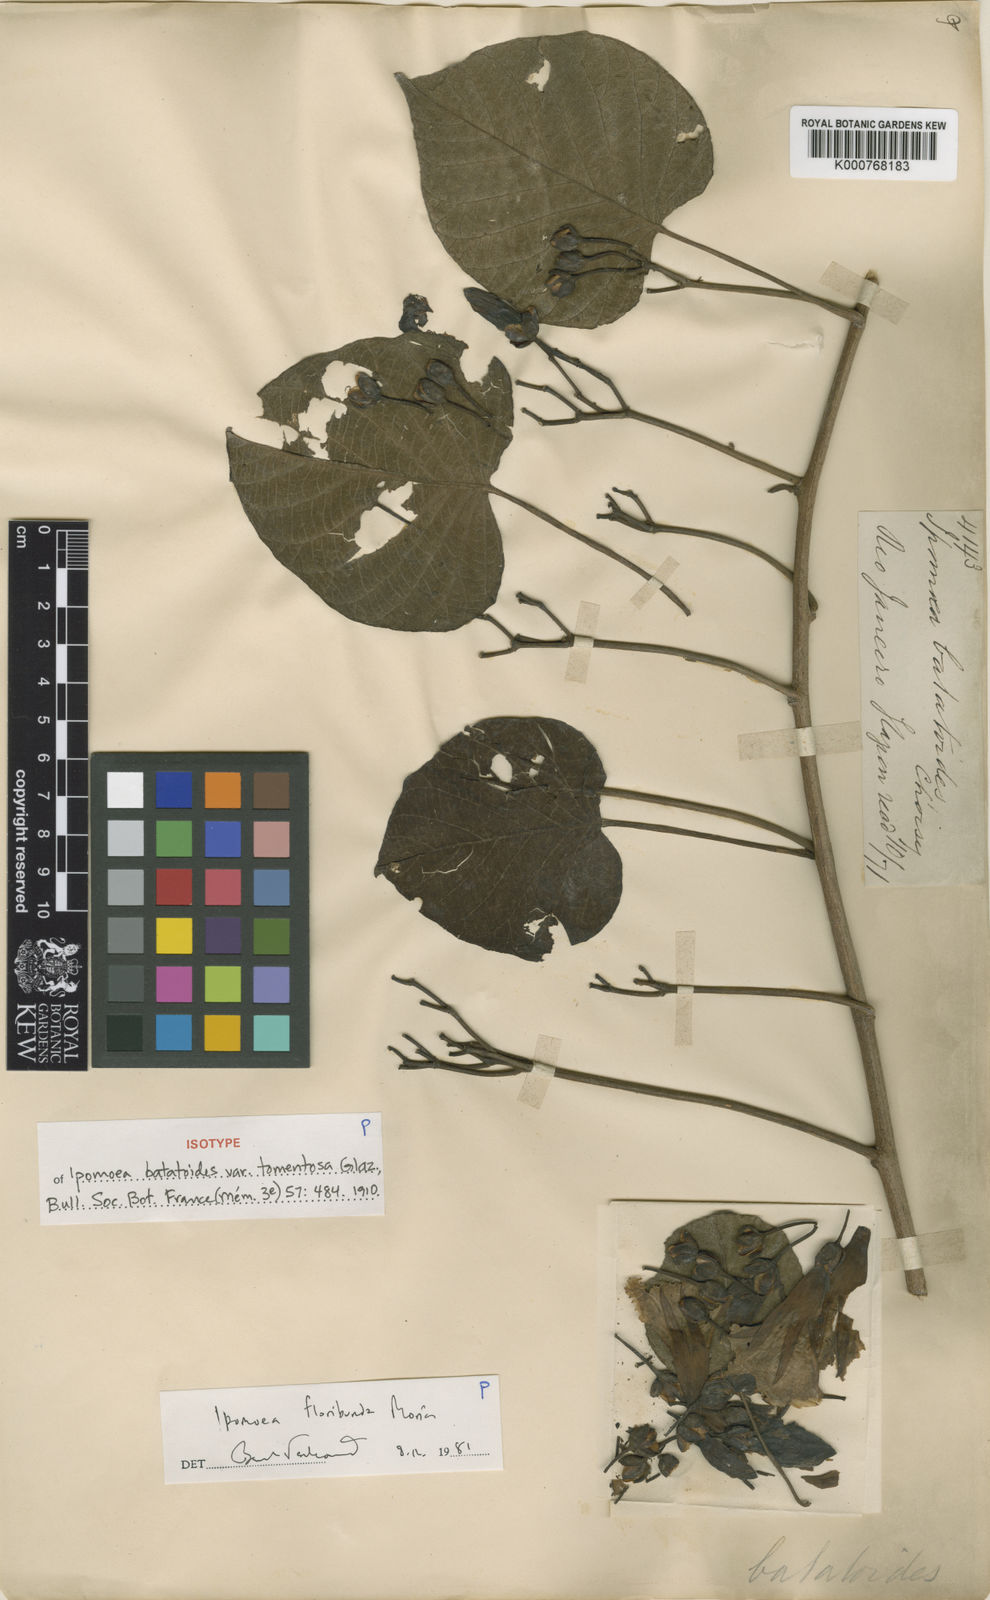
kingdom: Plantae
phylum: Tracheophyta
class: Magnoliopsida
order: Solanales
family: Convolvulaceae
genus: Ipomoea
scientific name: Ipomoea saopaulista
